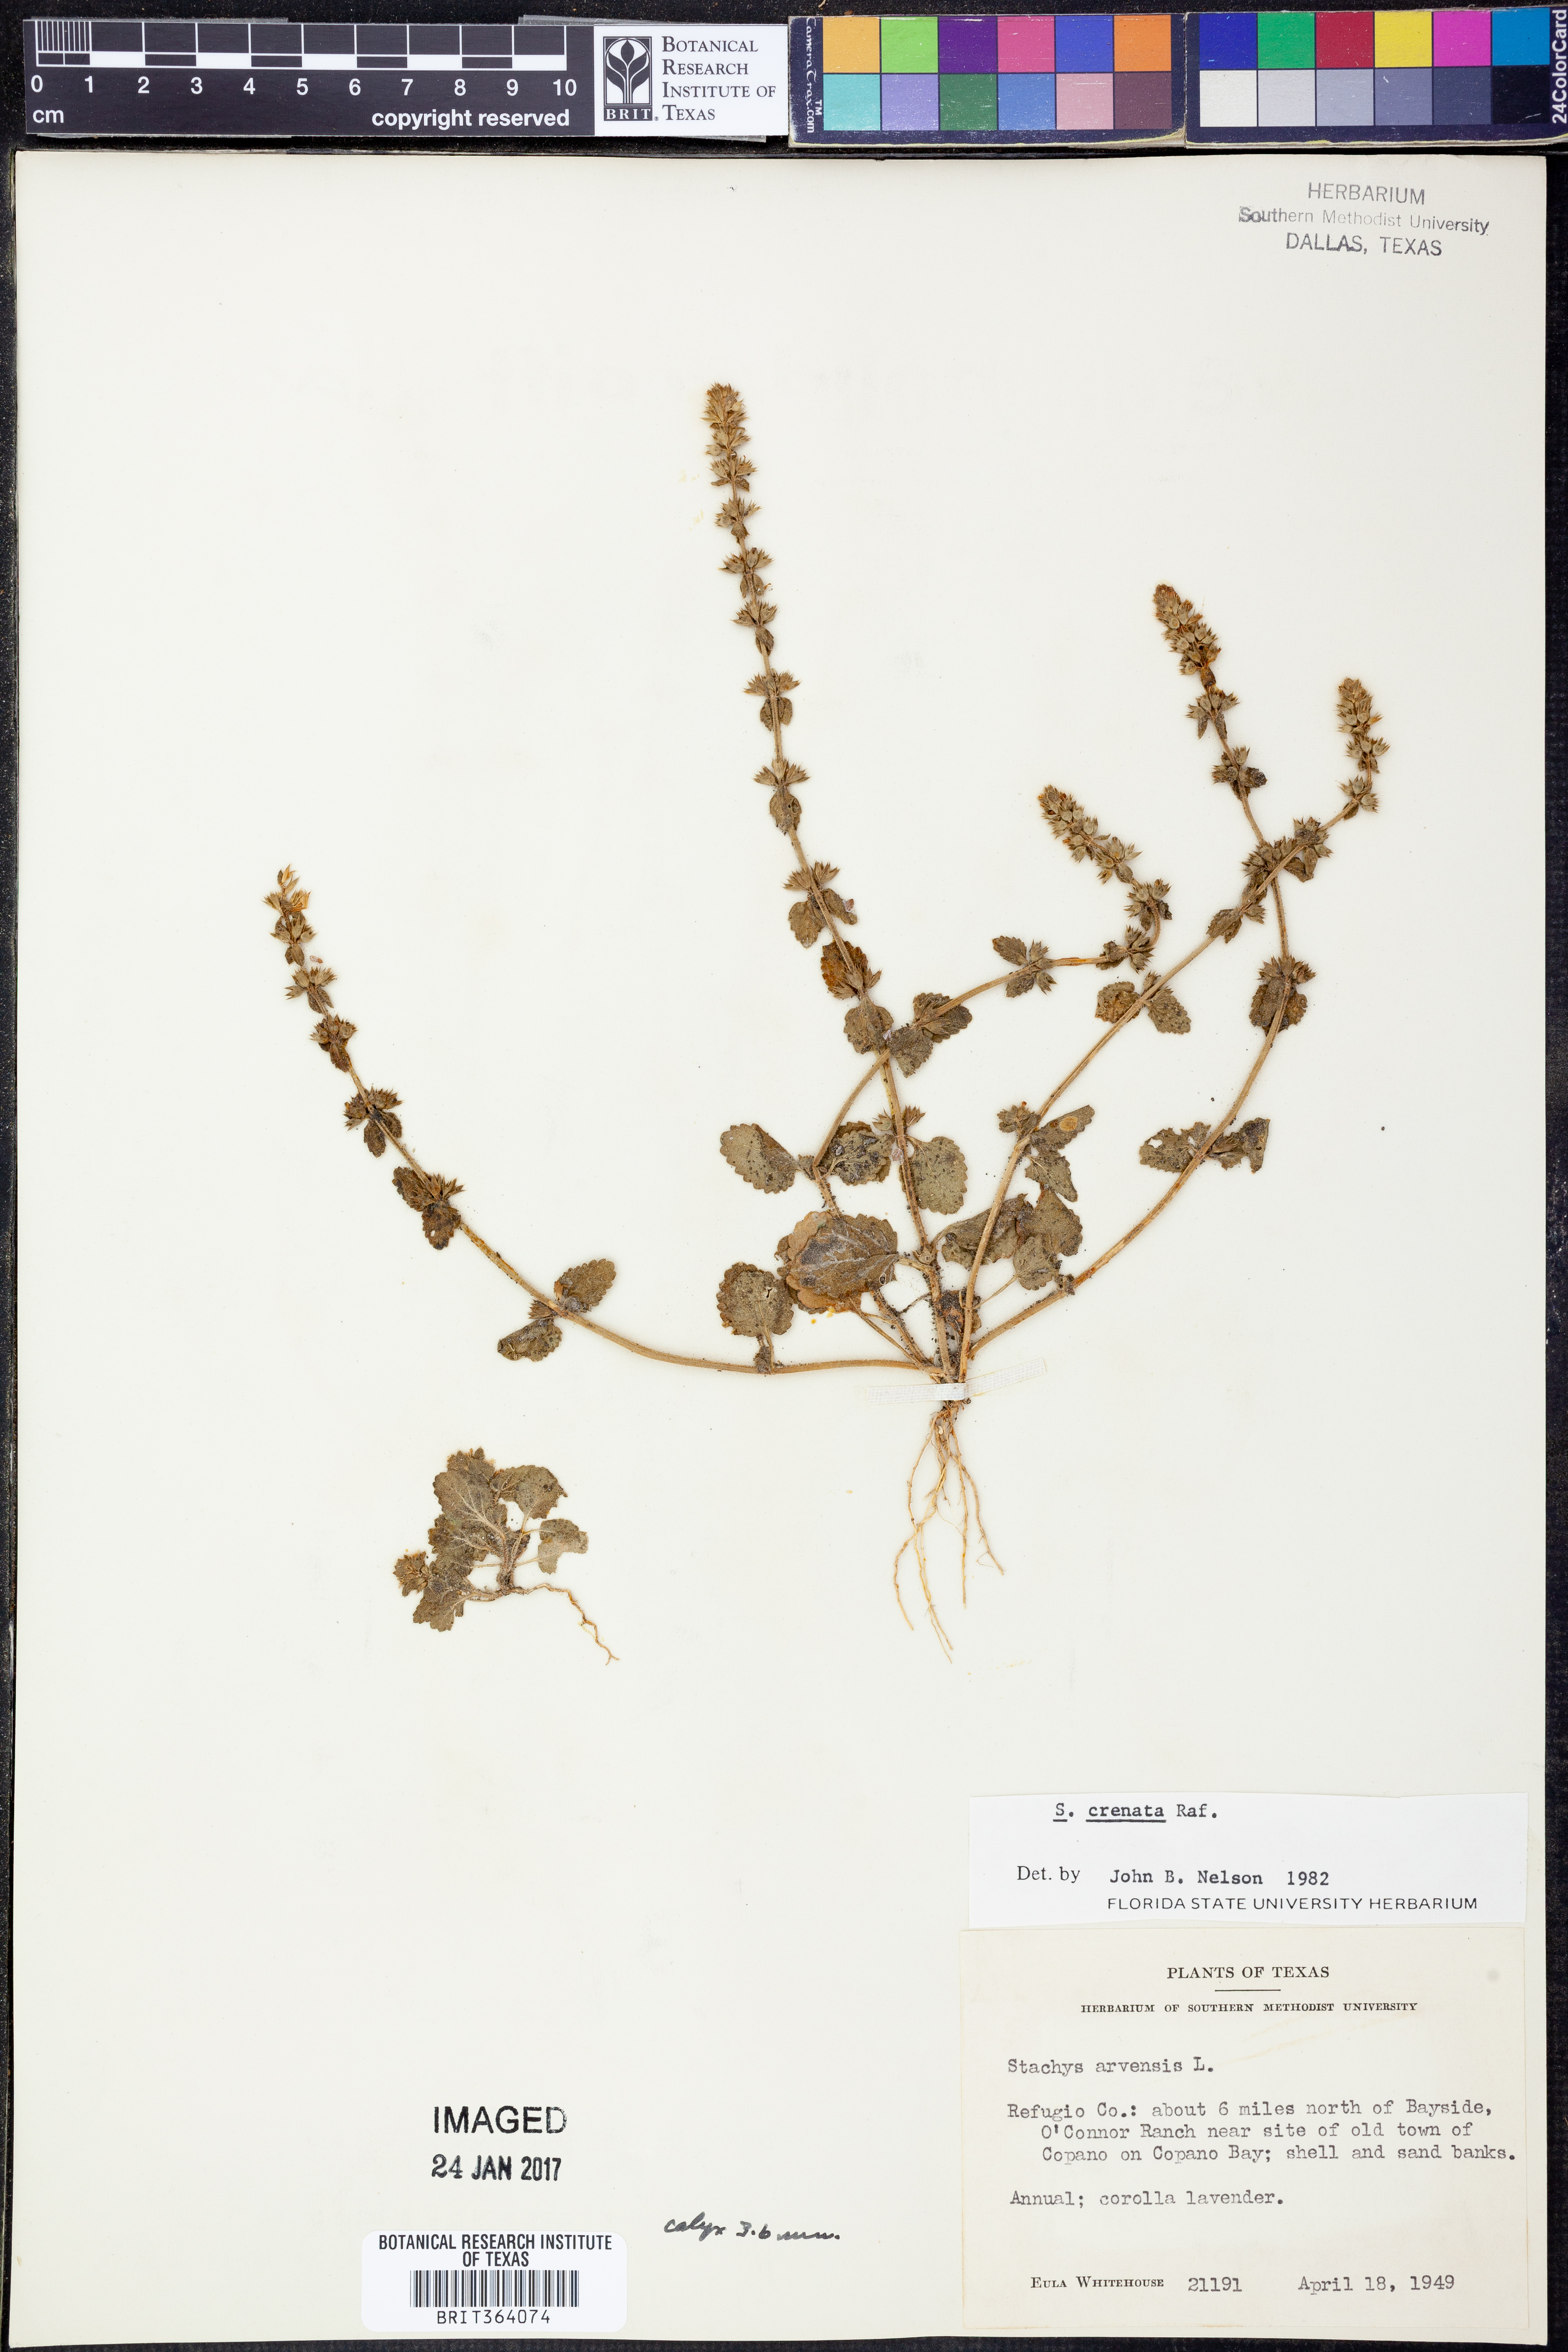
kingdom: Plantae
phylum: Tracheophyta
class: Magnoliopsida
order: Lamiales
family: Lamiaceae
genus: Stachys
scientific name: Stachys agraria
